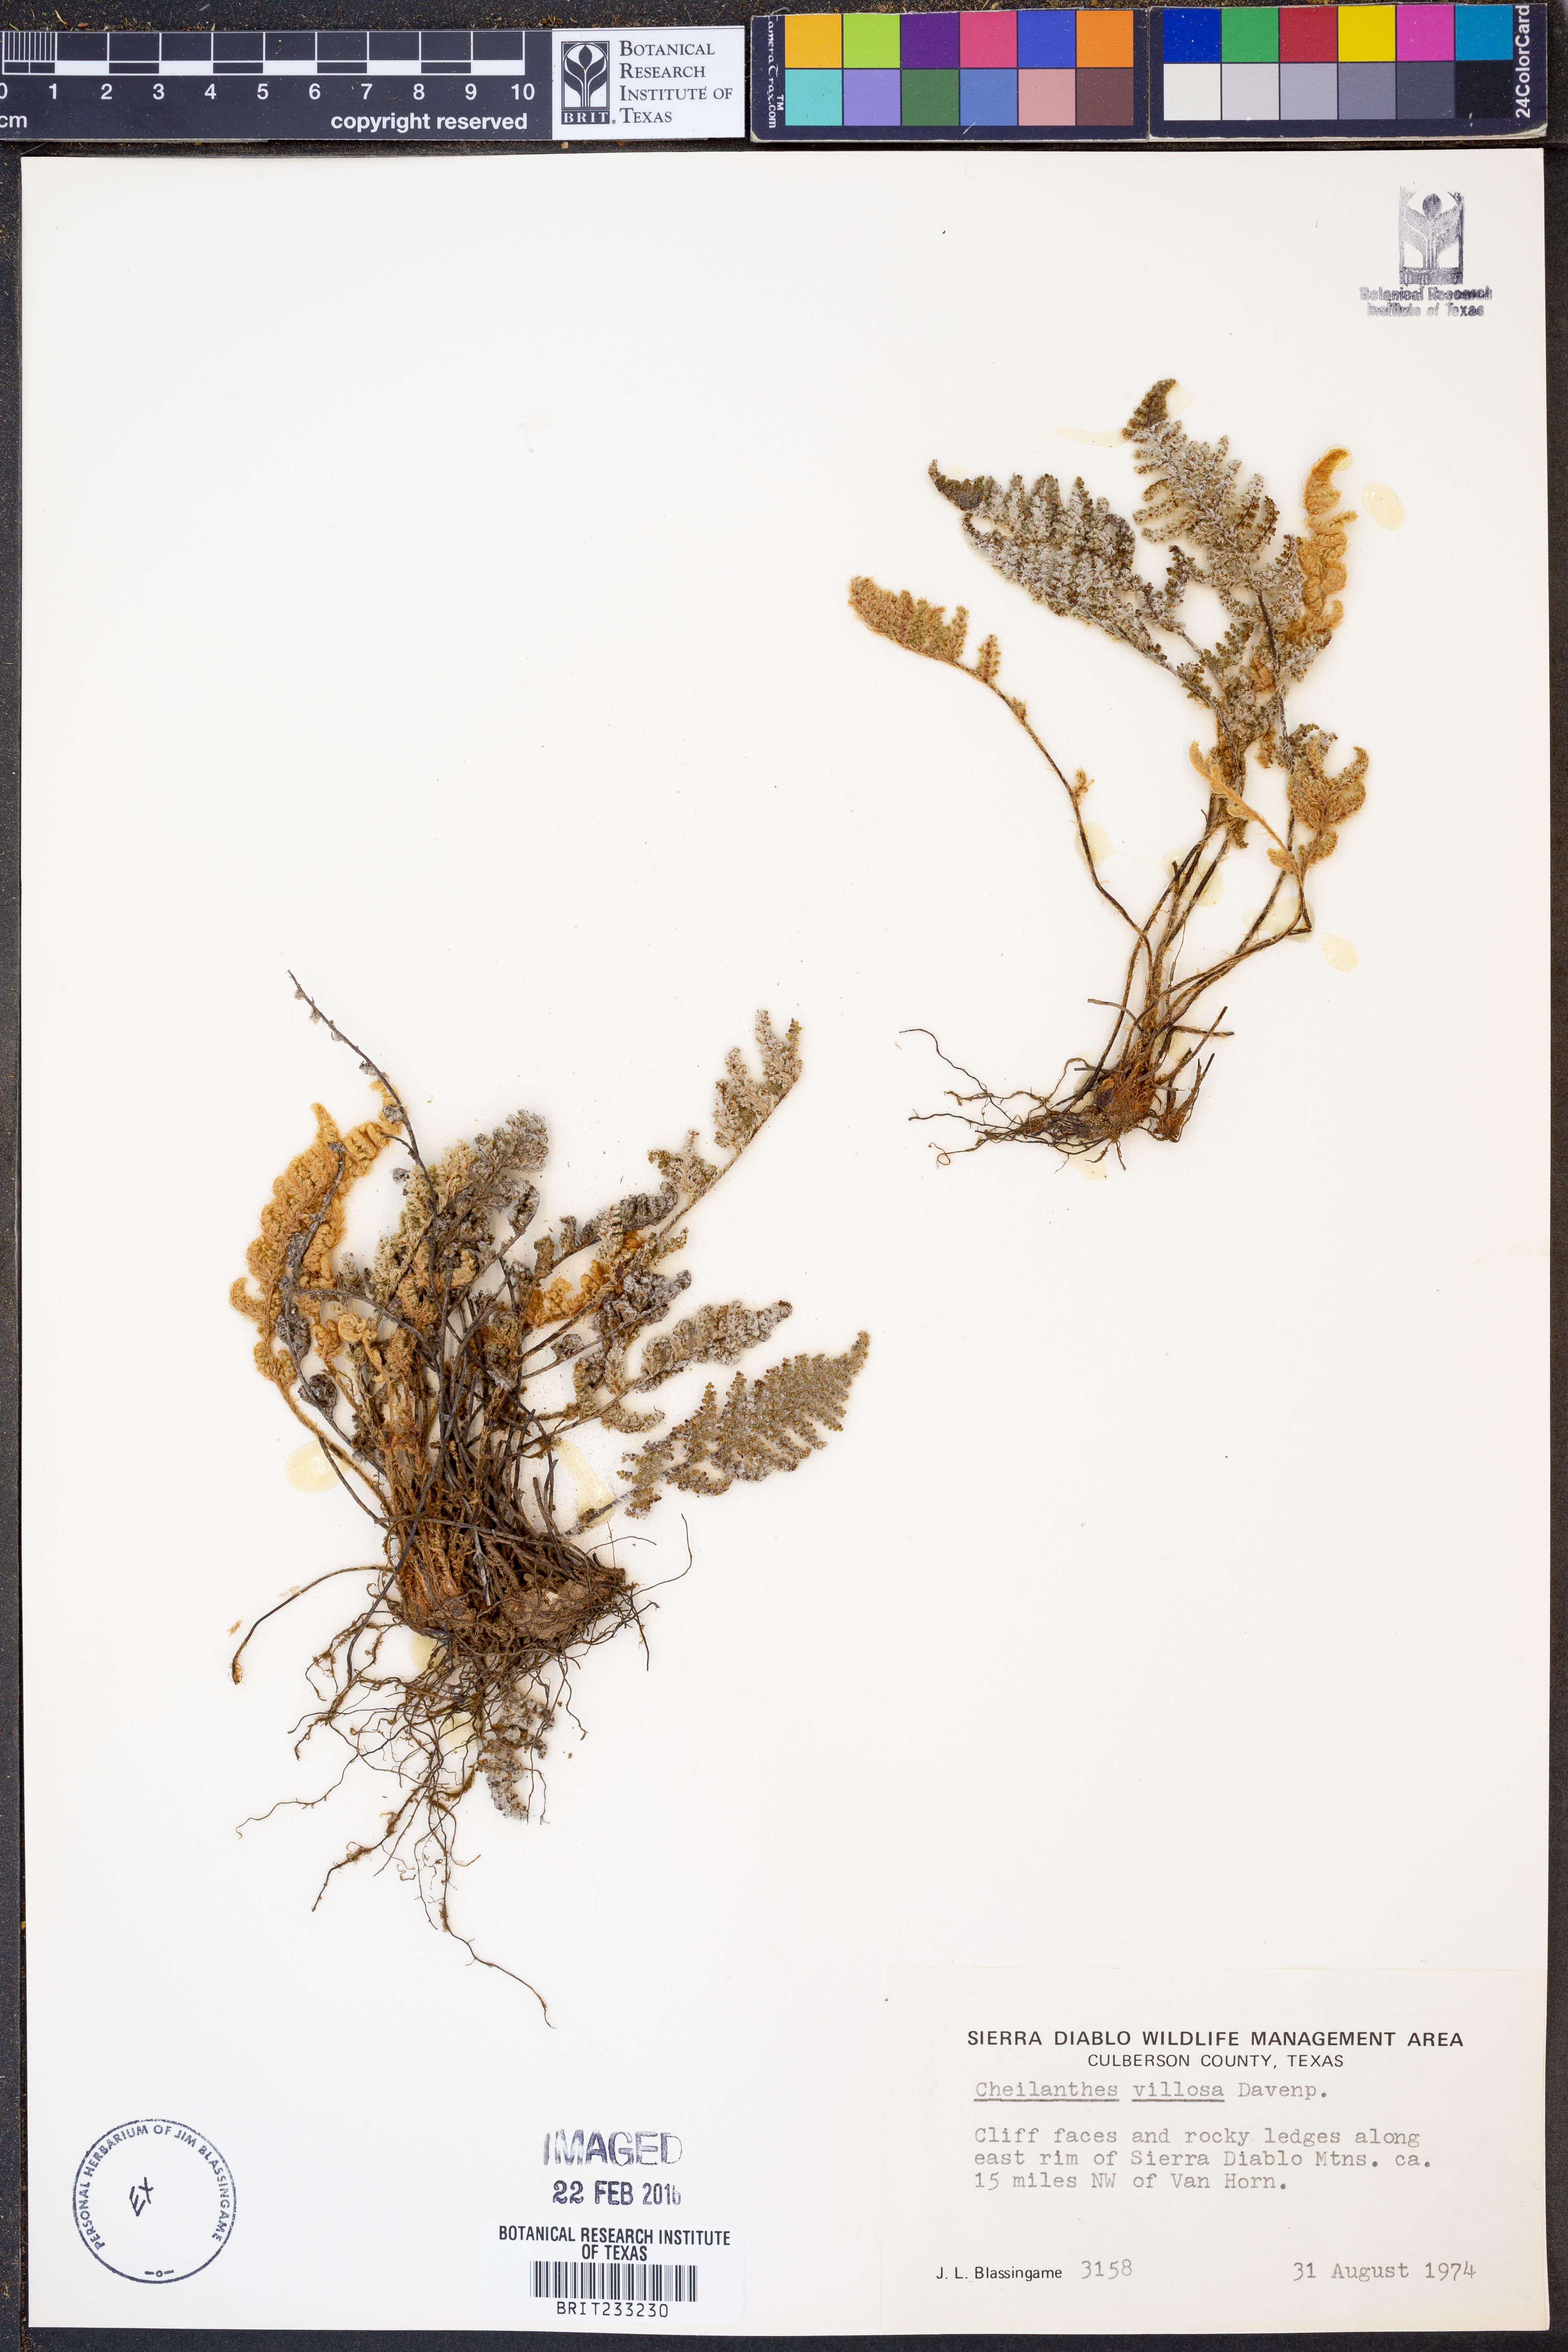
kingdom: Plantae
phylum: Tracheophyta
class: Polypodiopsida
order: Polypodiales
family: Pteridaceae
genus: Myriopteris
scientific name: Myriopteris windhamii
